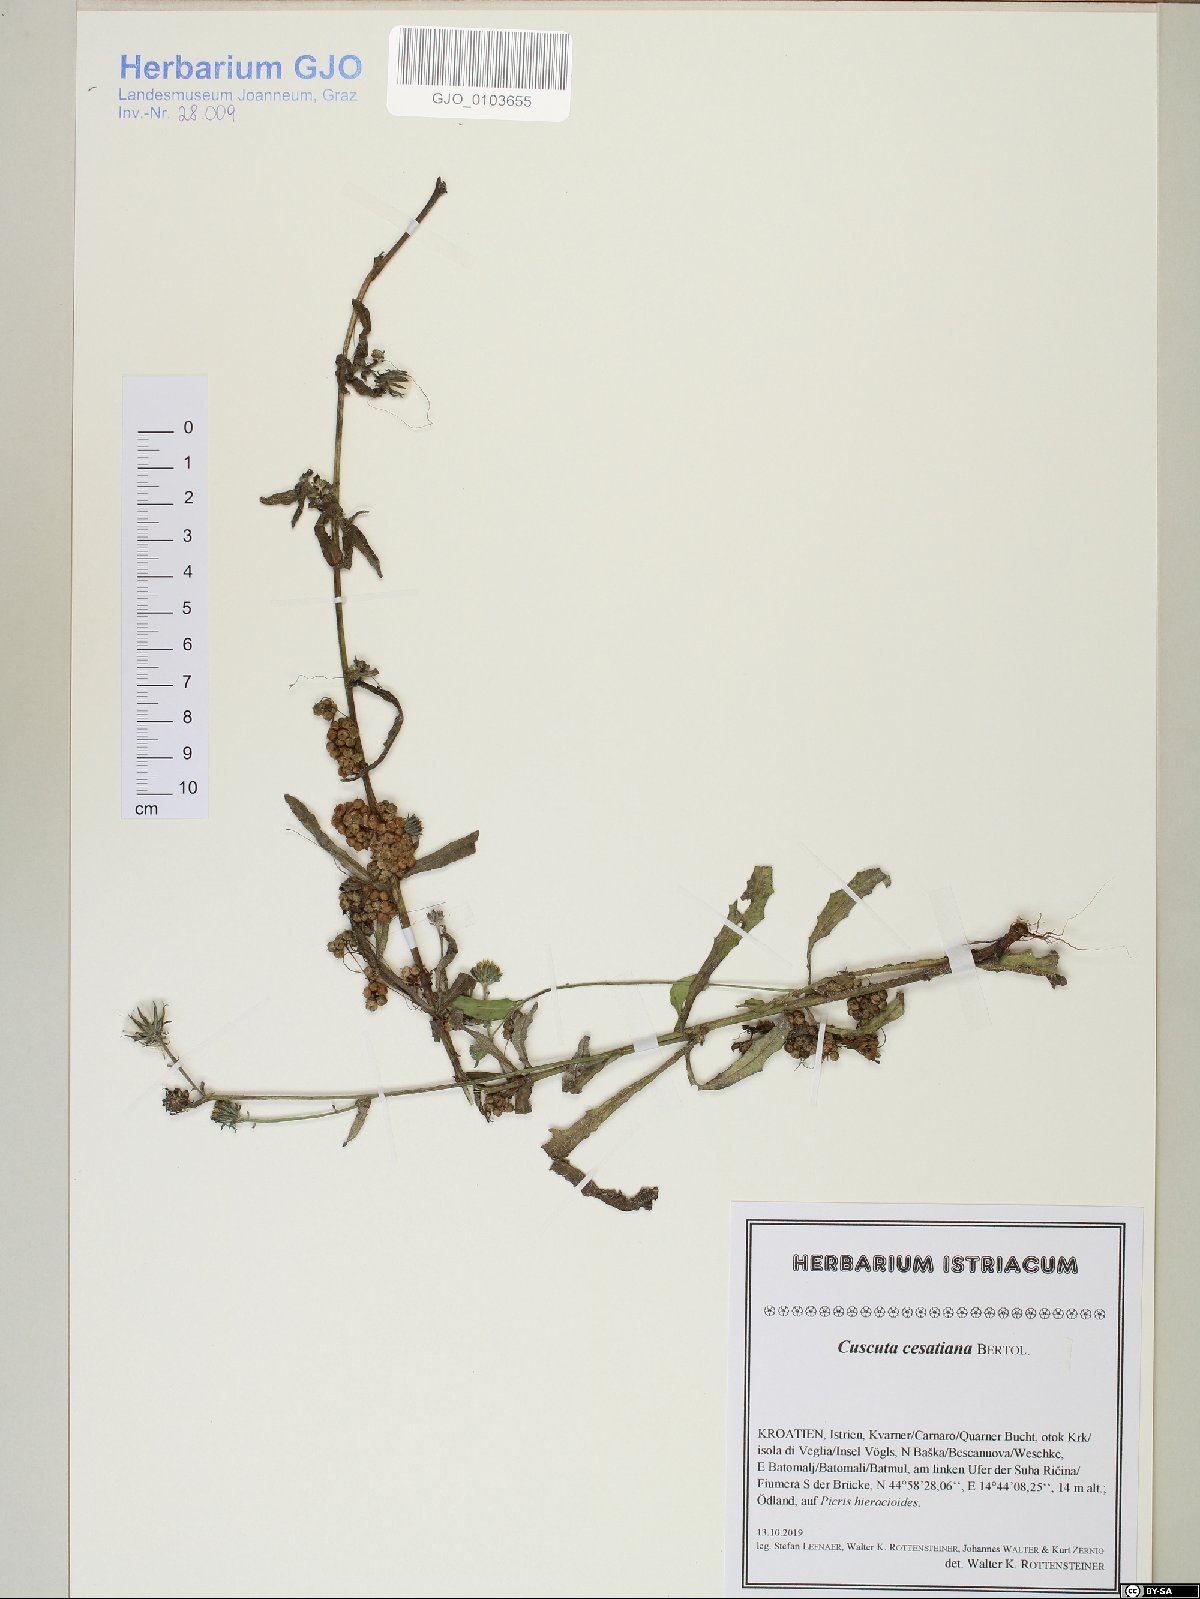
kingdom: Plantae
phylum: Tracheophyta
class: Magnoliopsida
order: Solanales
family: Convolvulaceae
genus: Cuscuta
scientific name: Cuscuta australis
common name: Australian dodder
